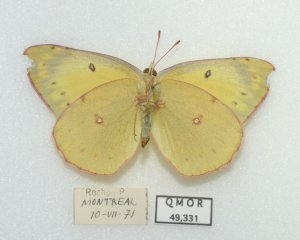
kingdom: Animalia
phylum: Arthropoda
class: Insecta
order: Lepidoptera
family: Pieridae
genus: Colias
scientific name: Colias eurytheme
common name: Orange Sulphur
